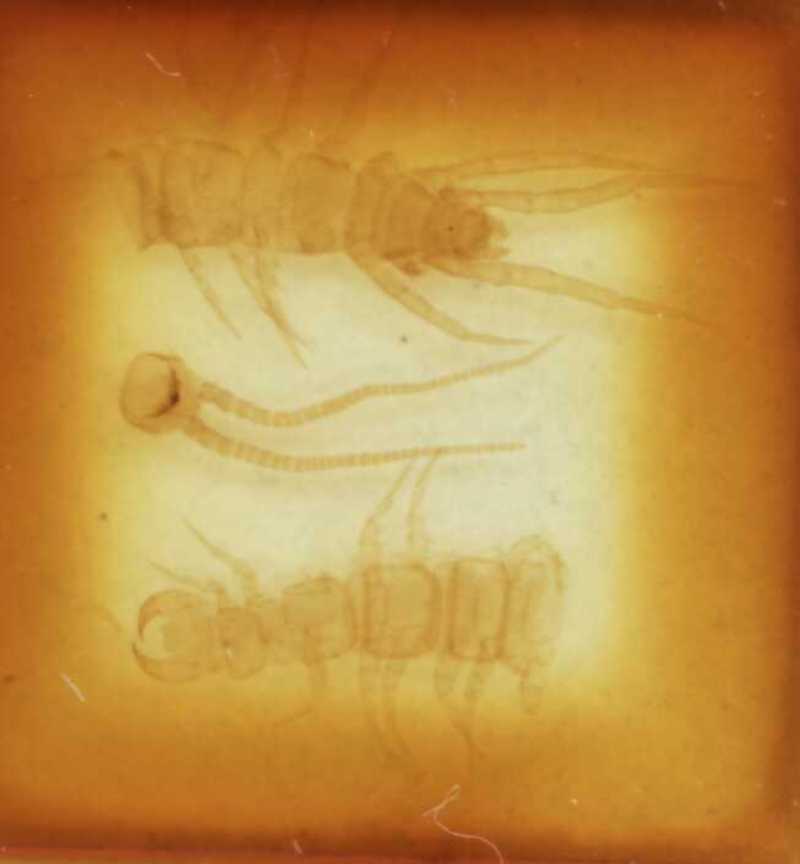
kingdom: Animalia
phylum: Arthropoda
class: Chilopoda
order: Lithobiomorpha
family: Lithobiidae
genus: Lithobius
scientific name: Lithobius erythrocephalus
